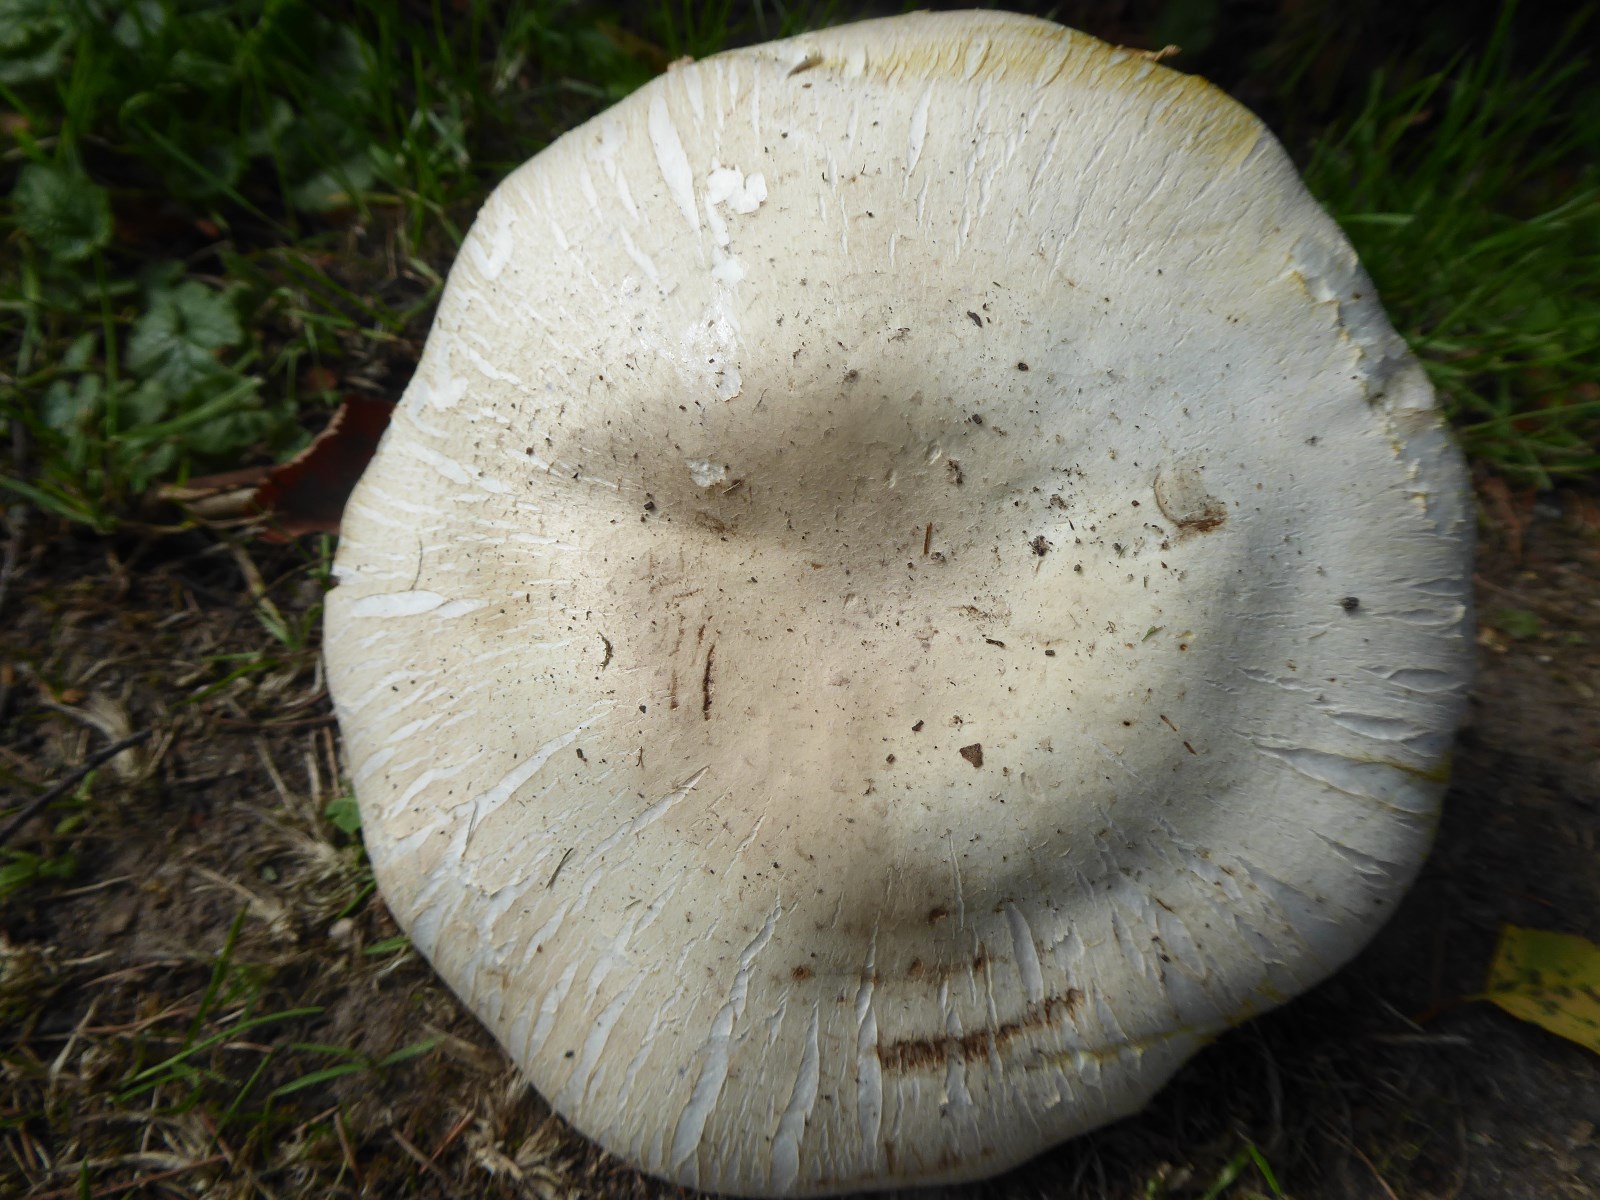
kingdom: Fungi
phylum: Basidiomycota
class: Agaricomycetes
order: Agaricales
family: Agaricaceae
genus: Agaricus
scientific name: Agaricus xanthodermus
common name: karbol-champignon
